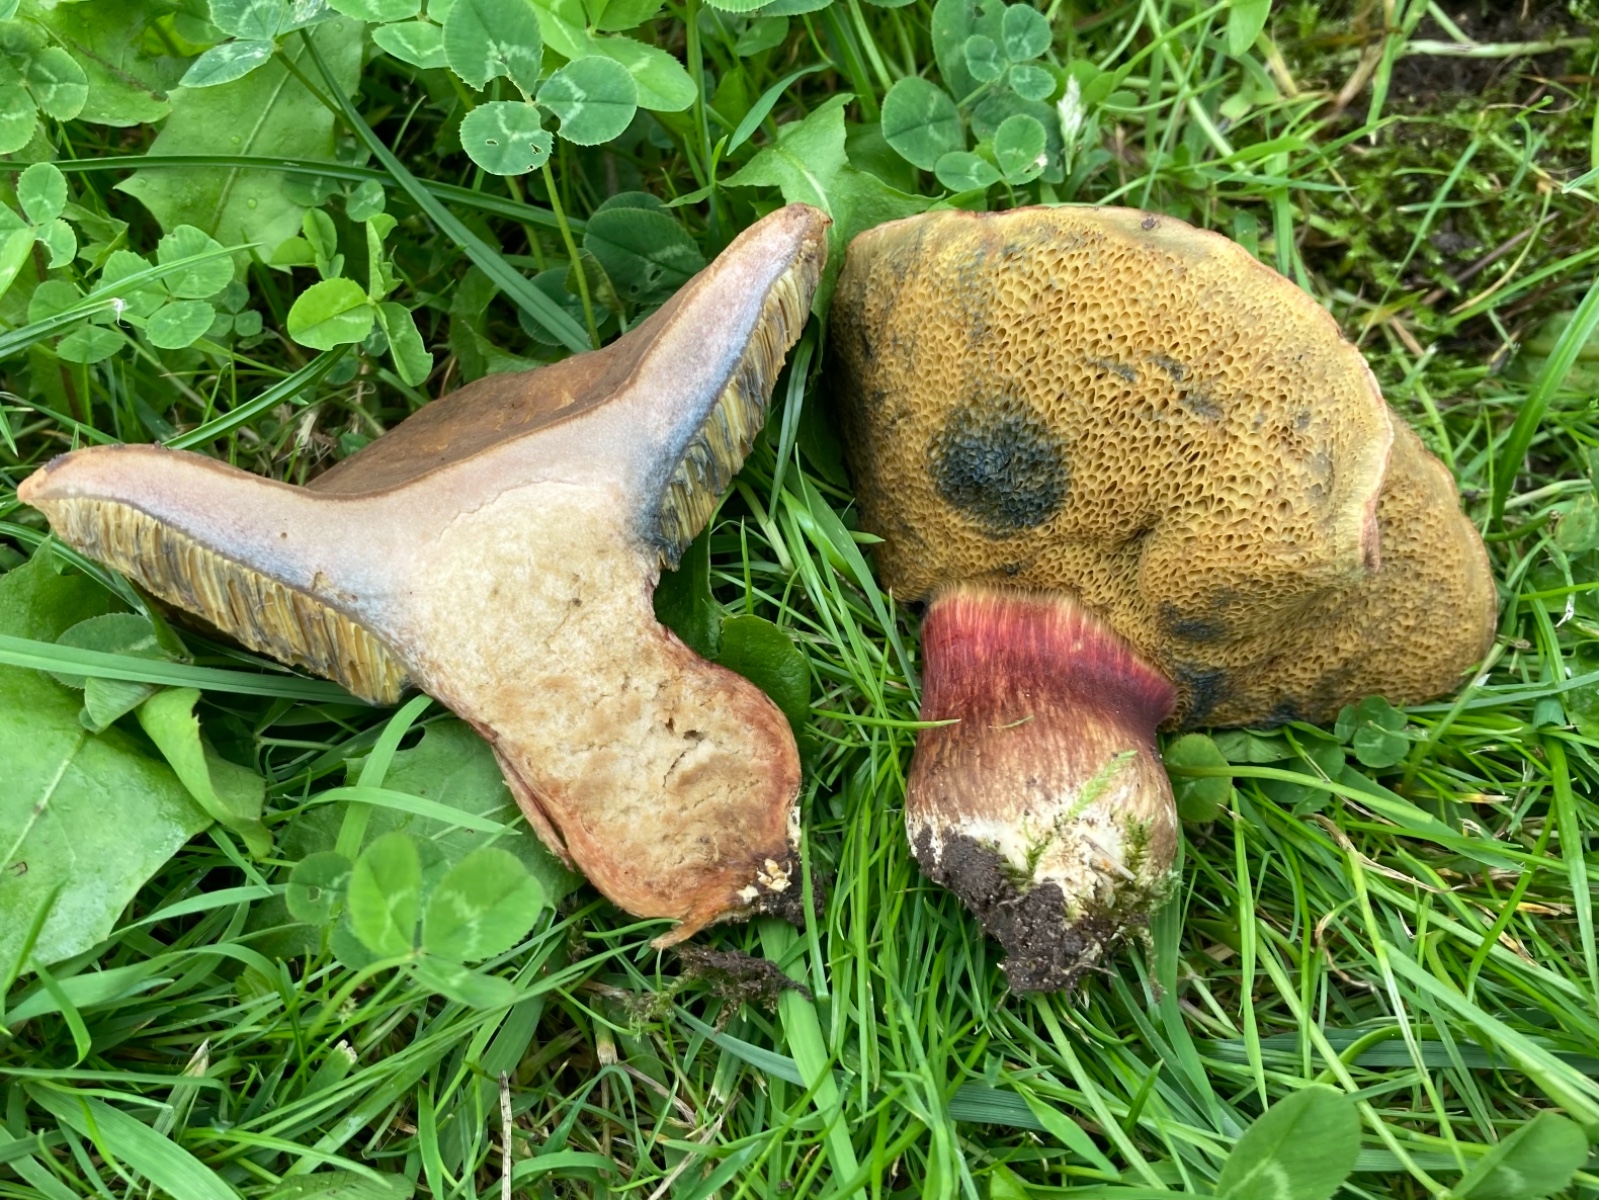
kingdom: Fungi
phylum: Basidiomycota
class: Agaricomycetes
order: Boletales
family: Boletaceae
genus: Hortiboletus
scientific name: Hortiboletus bubalinus
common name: aurora-rørhat
